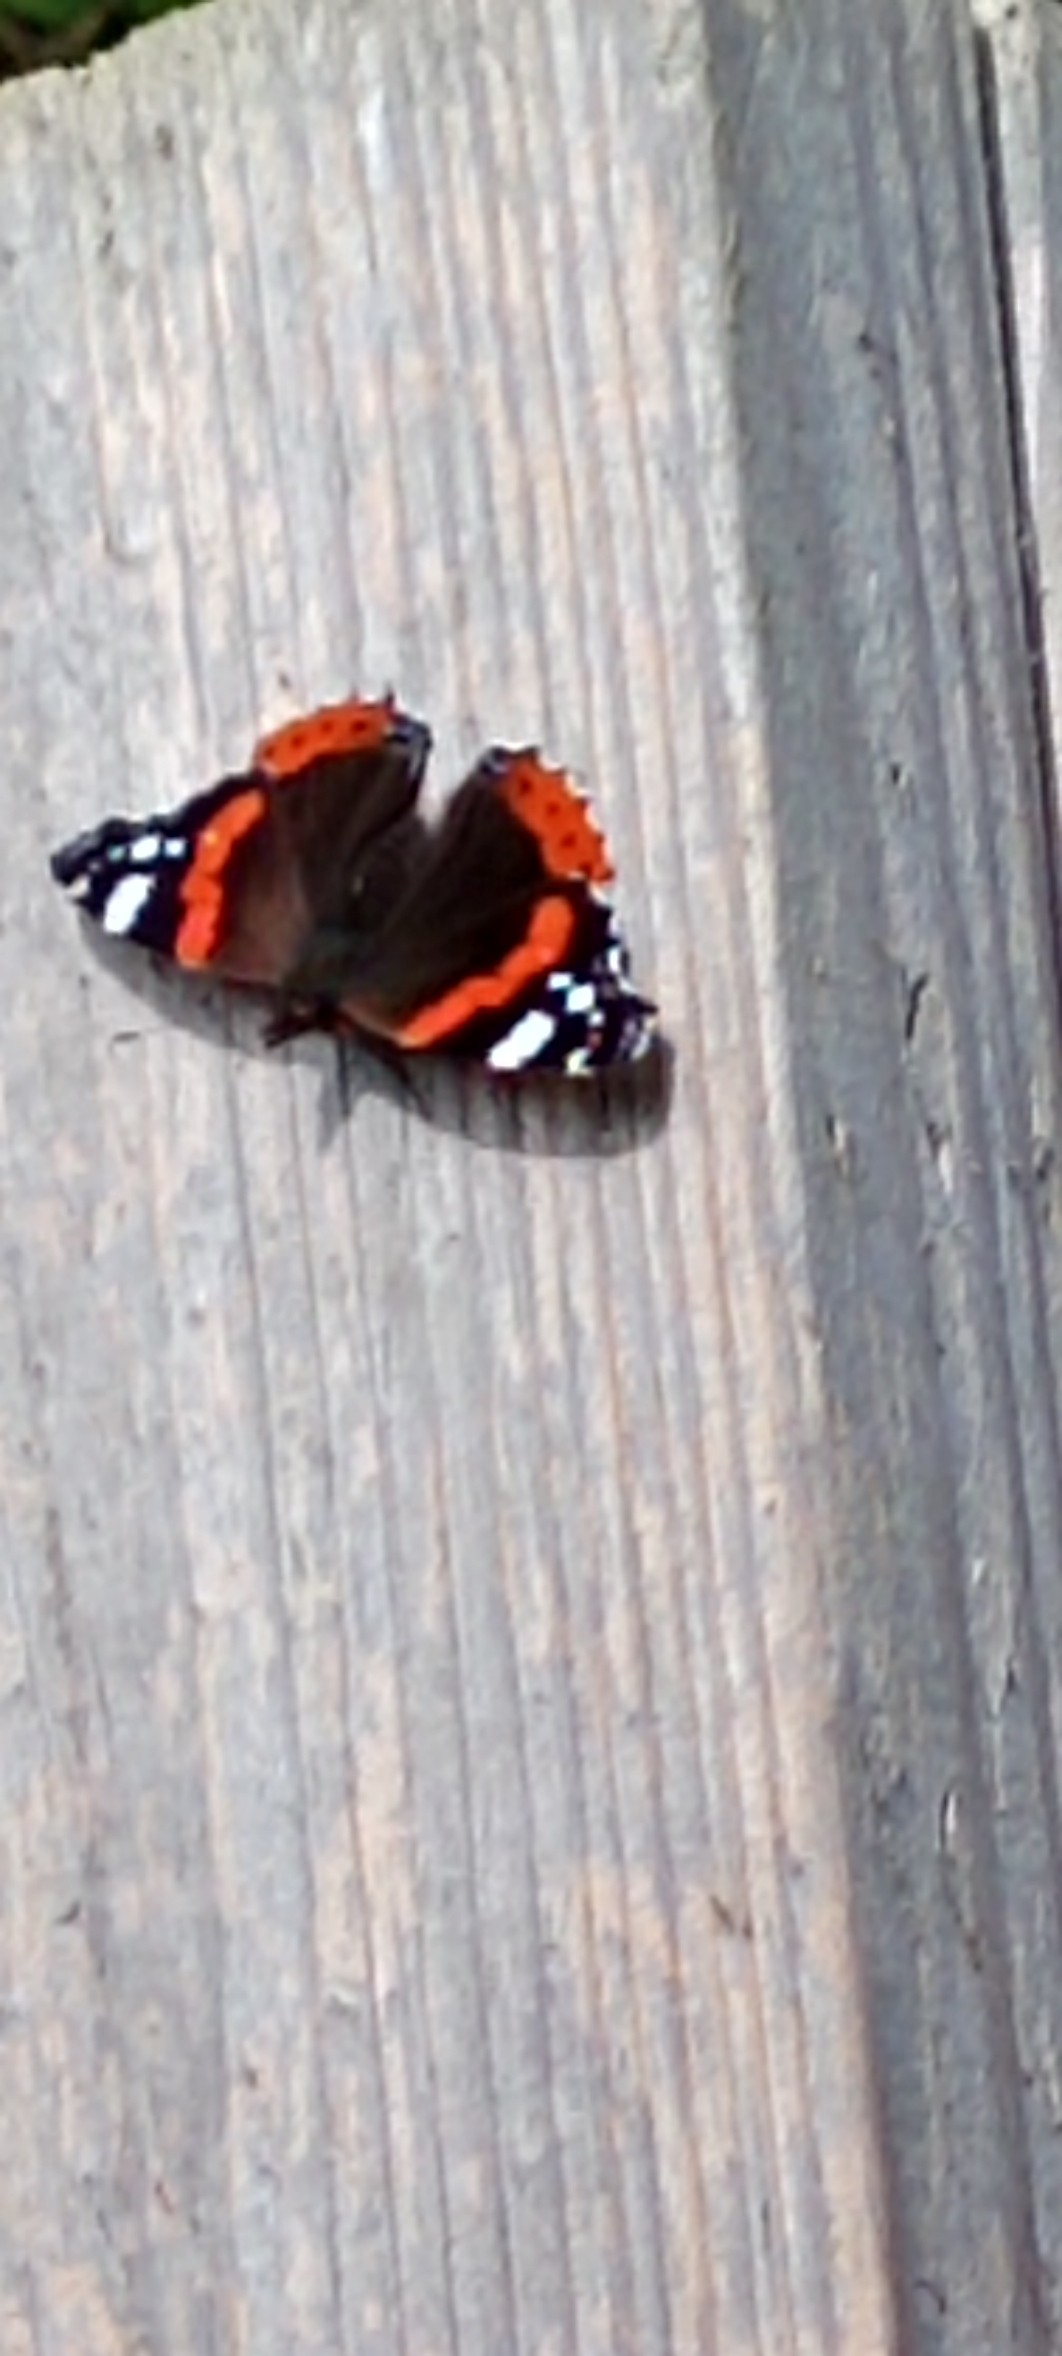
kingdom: Animalia
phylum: Arthropoda
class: Insecta
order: Lepidoptera
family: Nymphalidae
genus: Vanessa
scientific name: Vanessa atalanta
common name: Admiral
